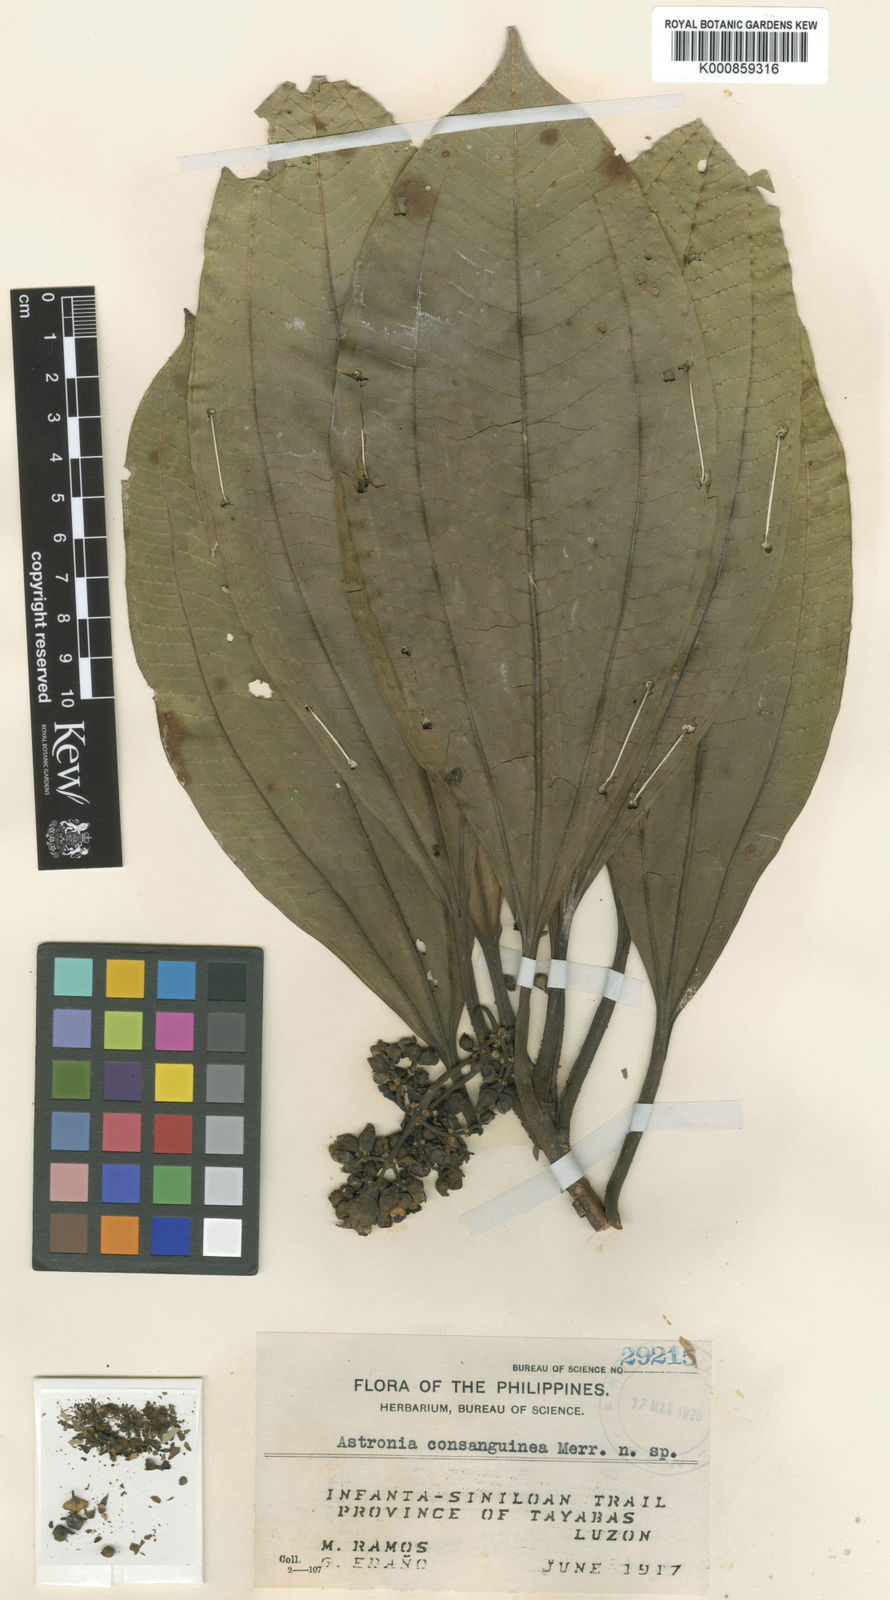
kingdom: Plantae
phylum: Tracheophyta
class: Magnoliopsida
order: Myrtales
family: Melastomataceae
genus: Astronia
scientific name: Astronia lagunensis
